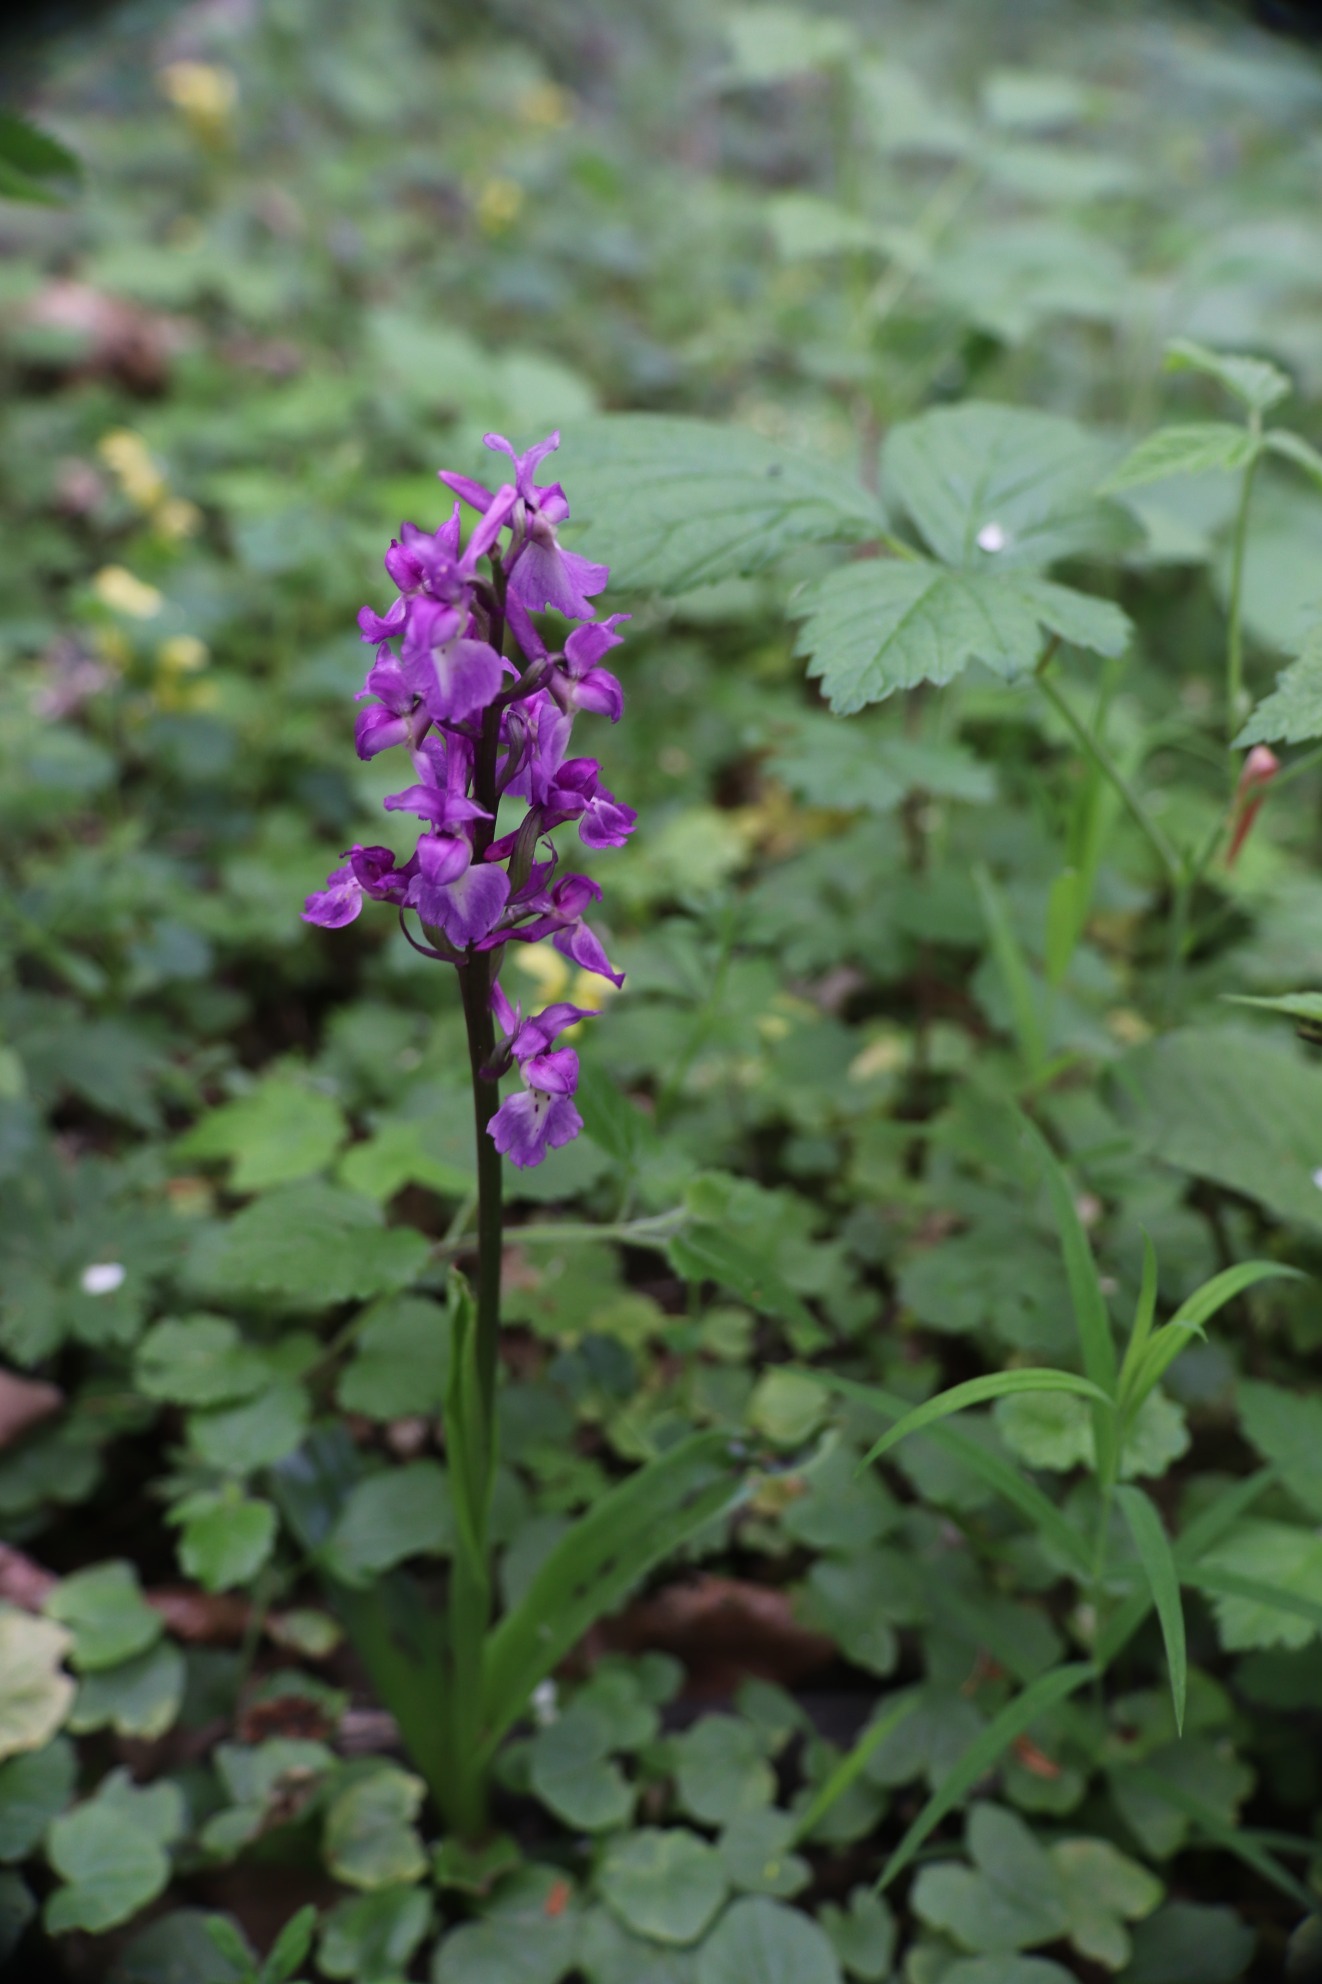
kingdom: Plantae
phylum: Tracheophyta
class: Liliopsida
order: Asparagales
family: Orchidaceae
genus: Orchis
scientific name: Orchis mascula
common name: Tyndakset gøgeurt
